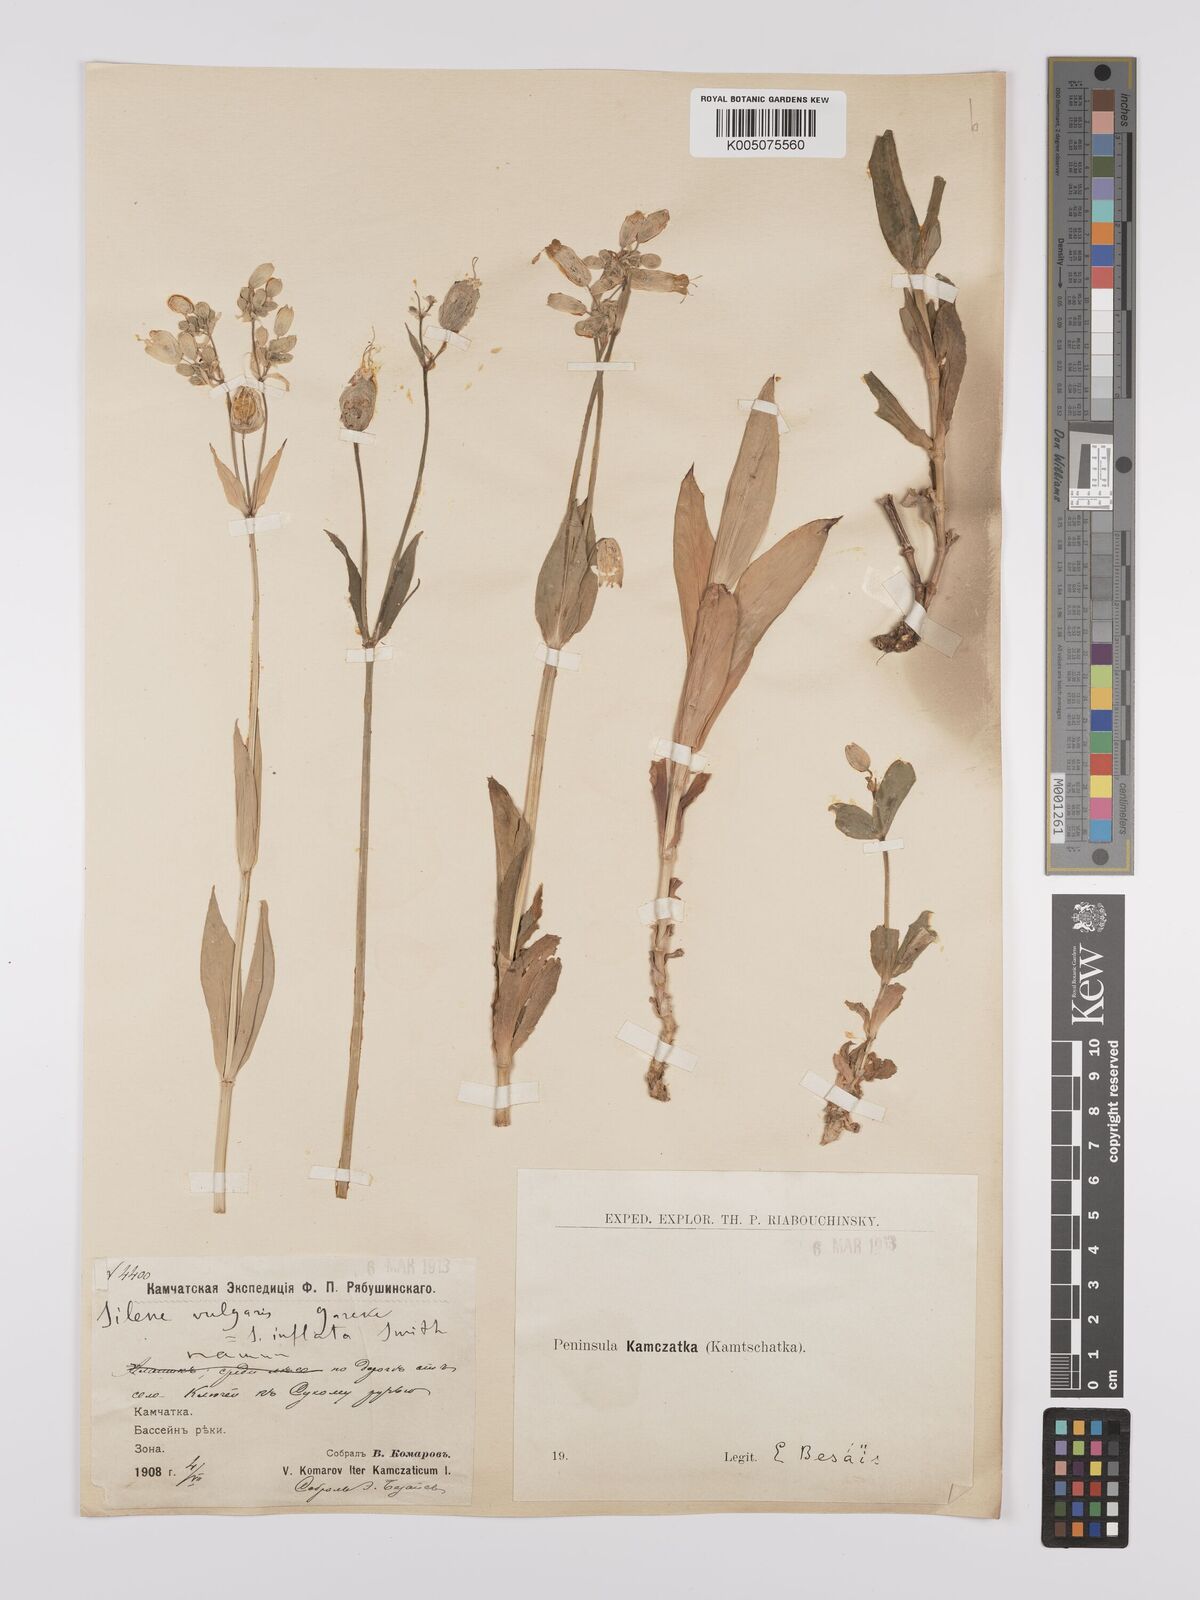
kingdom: Plantae
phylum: Tracheophyta
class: Magnoliopsida
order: Caryophyllales
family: Caryophyllaceae
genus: Silene
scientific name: Silene vulgaris
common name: Bladder campion
